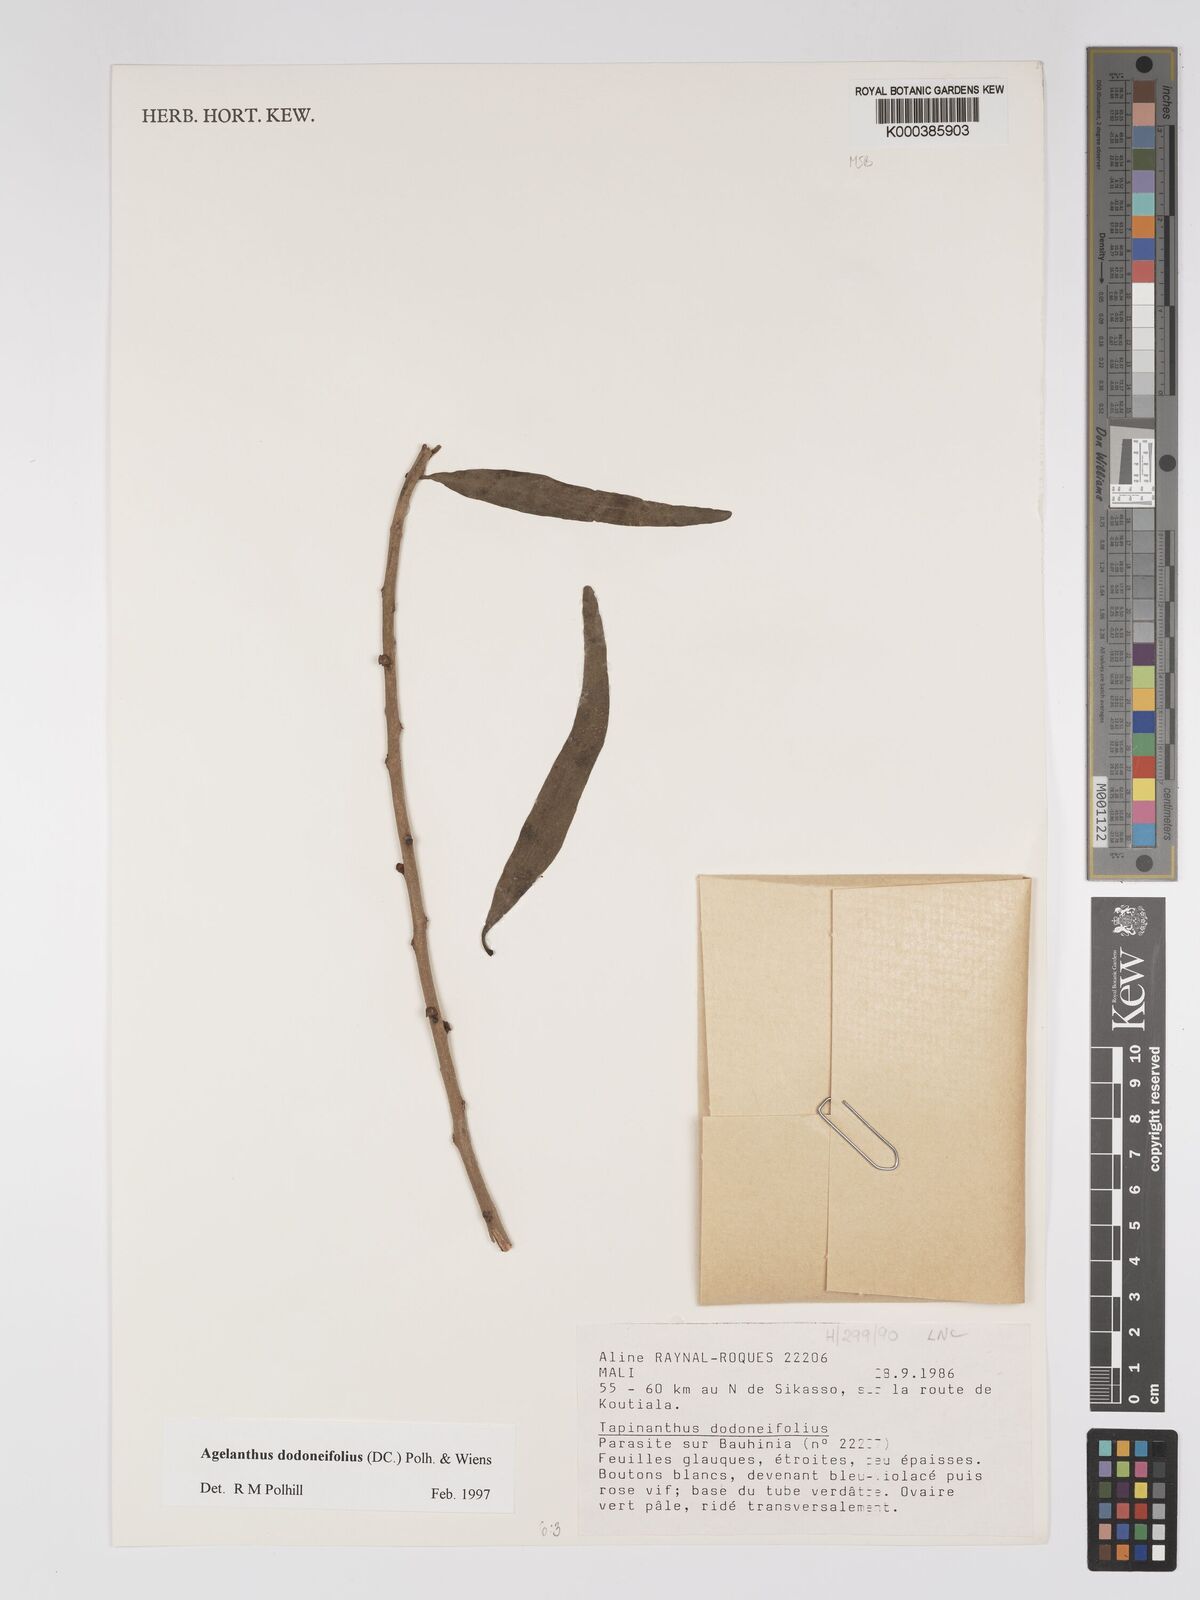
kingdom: Plantae
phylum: Tracheophyta
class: Magnoliopsida
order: Santalales
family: Loranthaceae
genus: Agelanthus
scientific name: Agelanthus dodoneifolius
